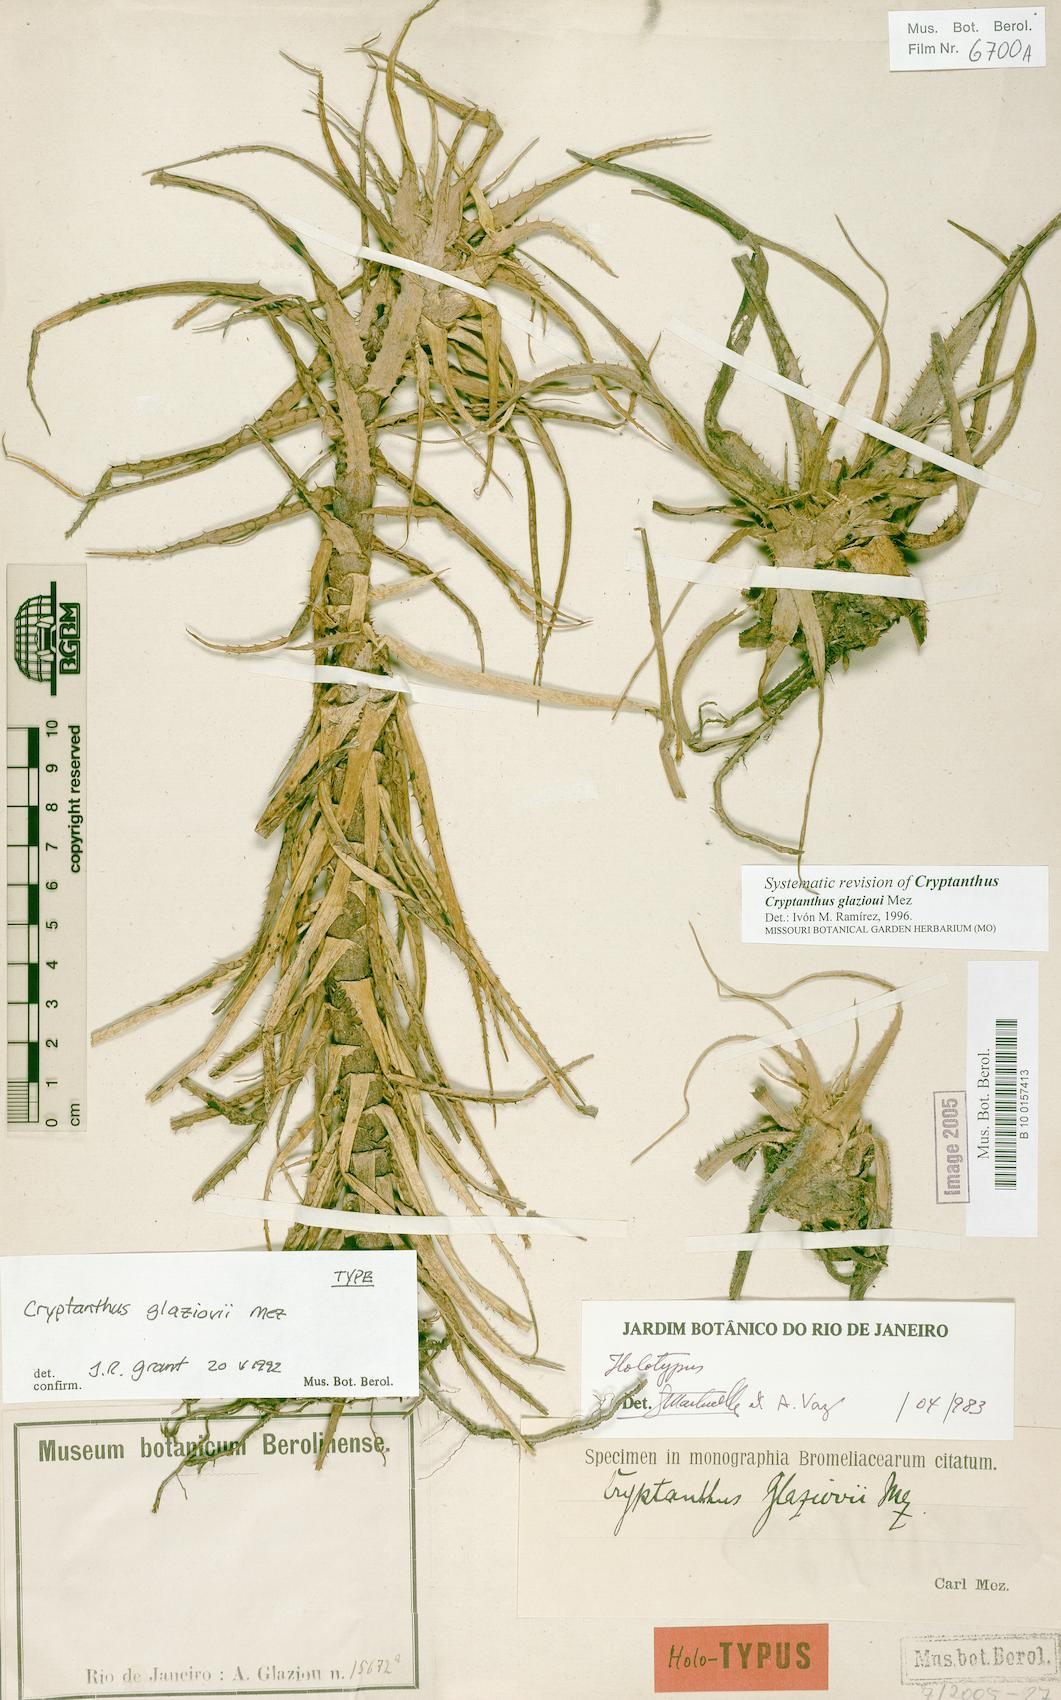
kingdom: Plantae
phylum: Tracheophyta
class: Liliopsida
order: Poales
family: Bromeliaceae
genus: Hoplocryptanthus
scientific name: Hoplocryptanthus glaziovii
